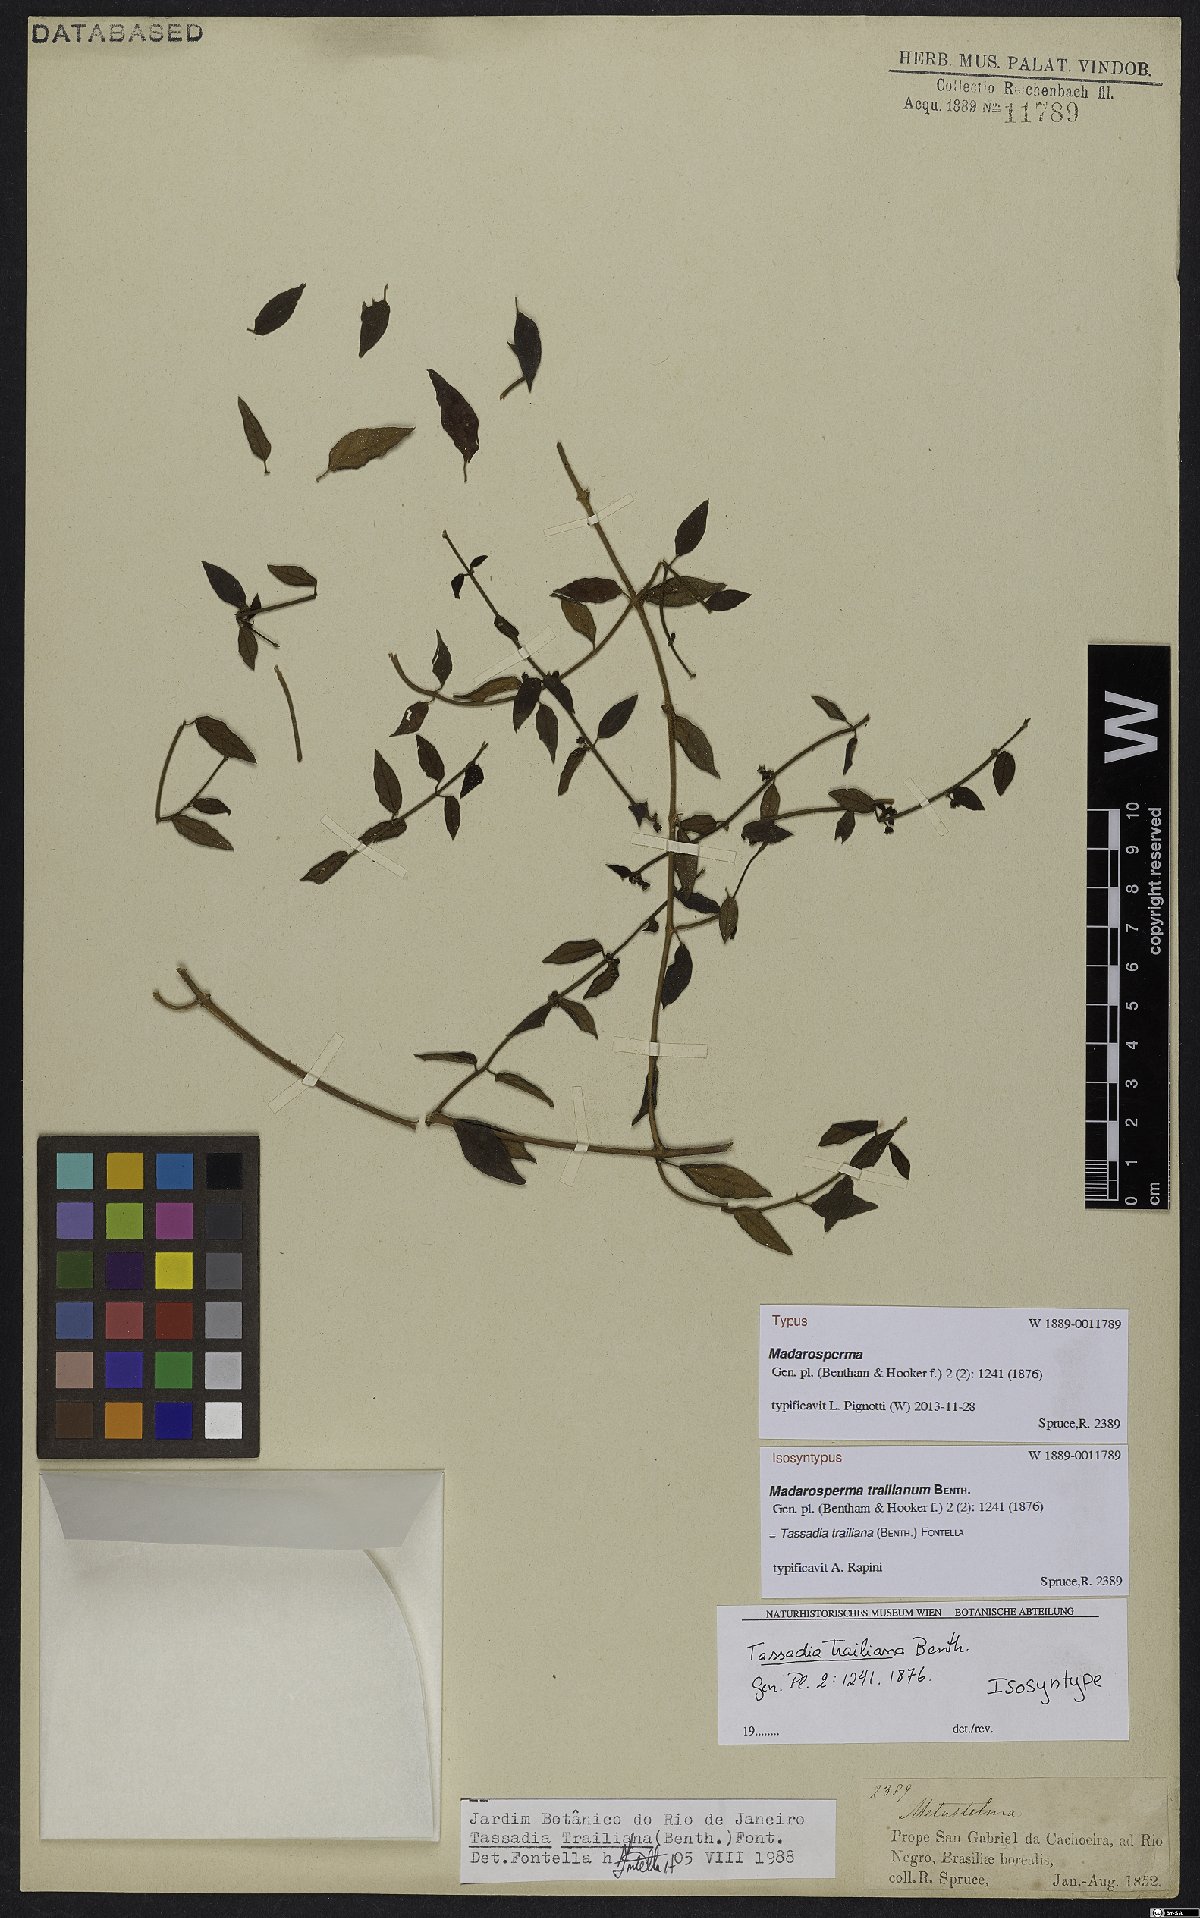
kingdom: Plantae
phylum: Tracheophyta
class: Magnoliopsida
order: Gentianales
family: Apocynaceae
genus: Tassadia
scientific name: Tassadia trailiana
